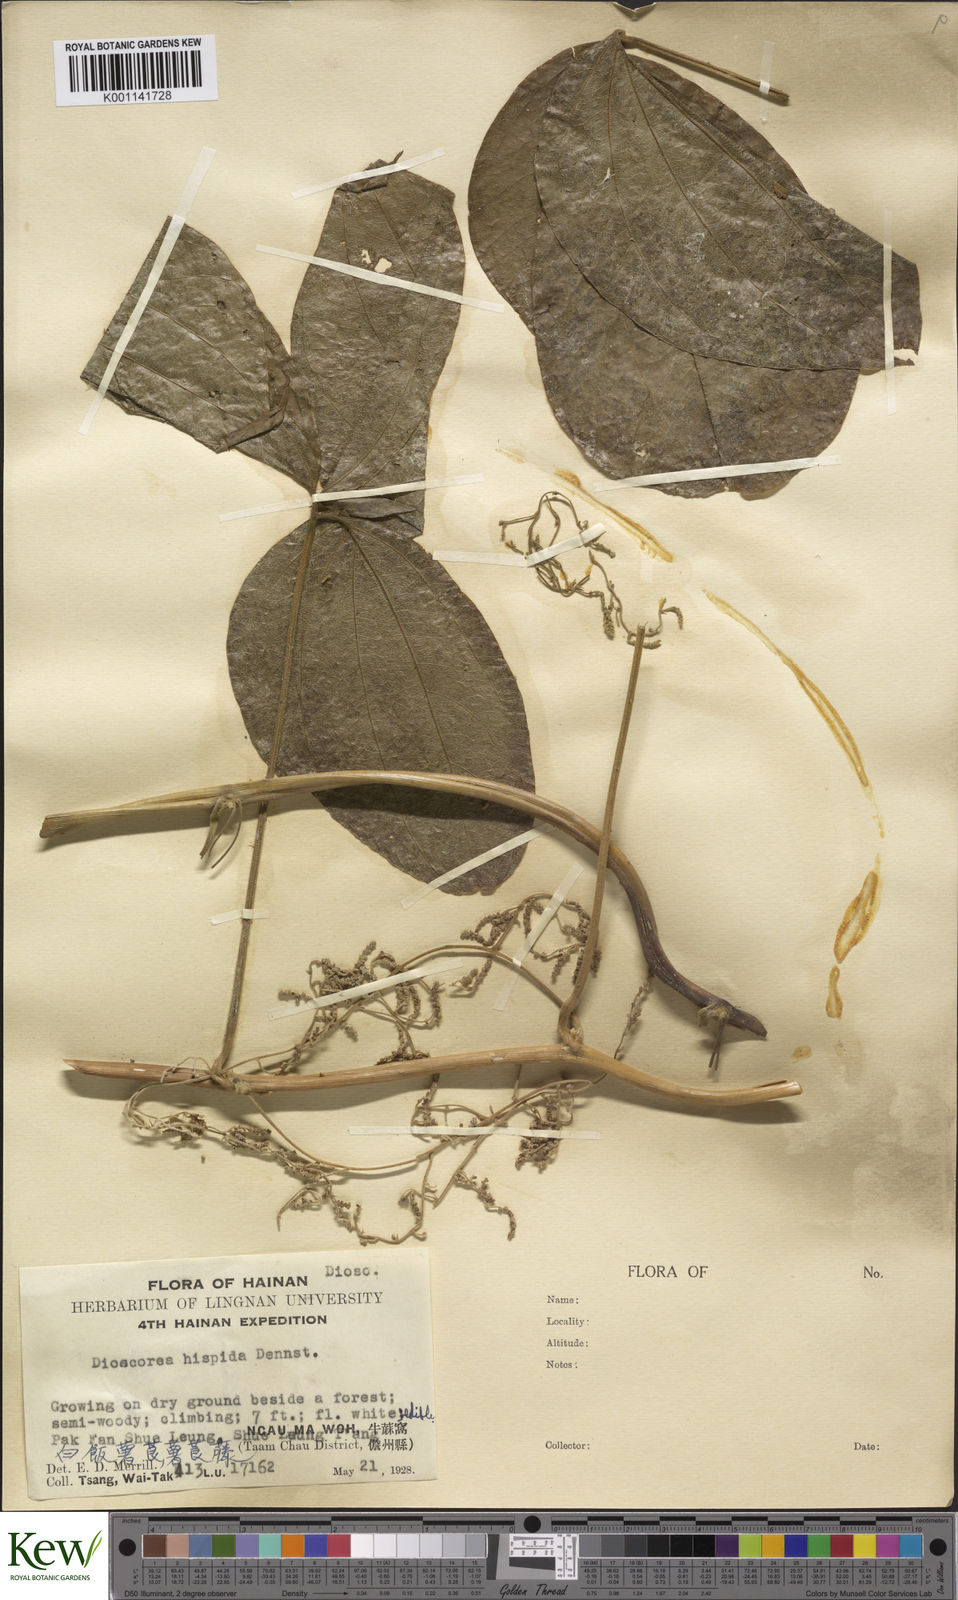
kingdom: Plantae
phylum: Tracheophyta
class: Liliopsida
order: Dioscoreales
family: Dioscoreaceae
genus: Dioscorea
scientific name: Dioscorea hispida
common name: Asiatic bitter yam
